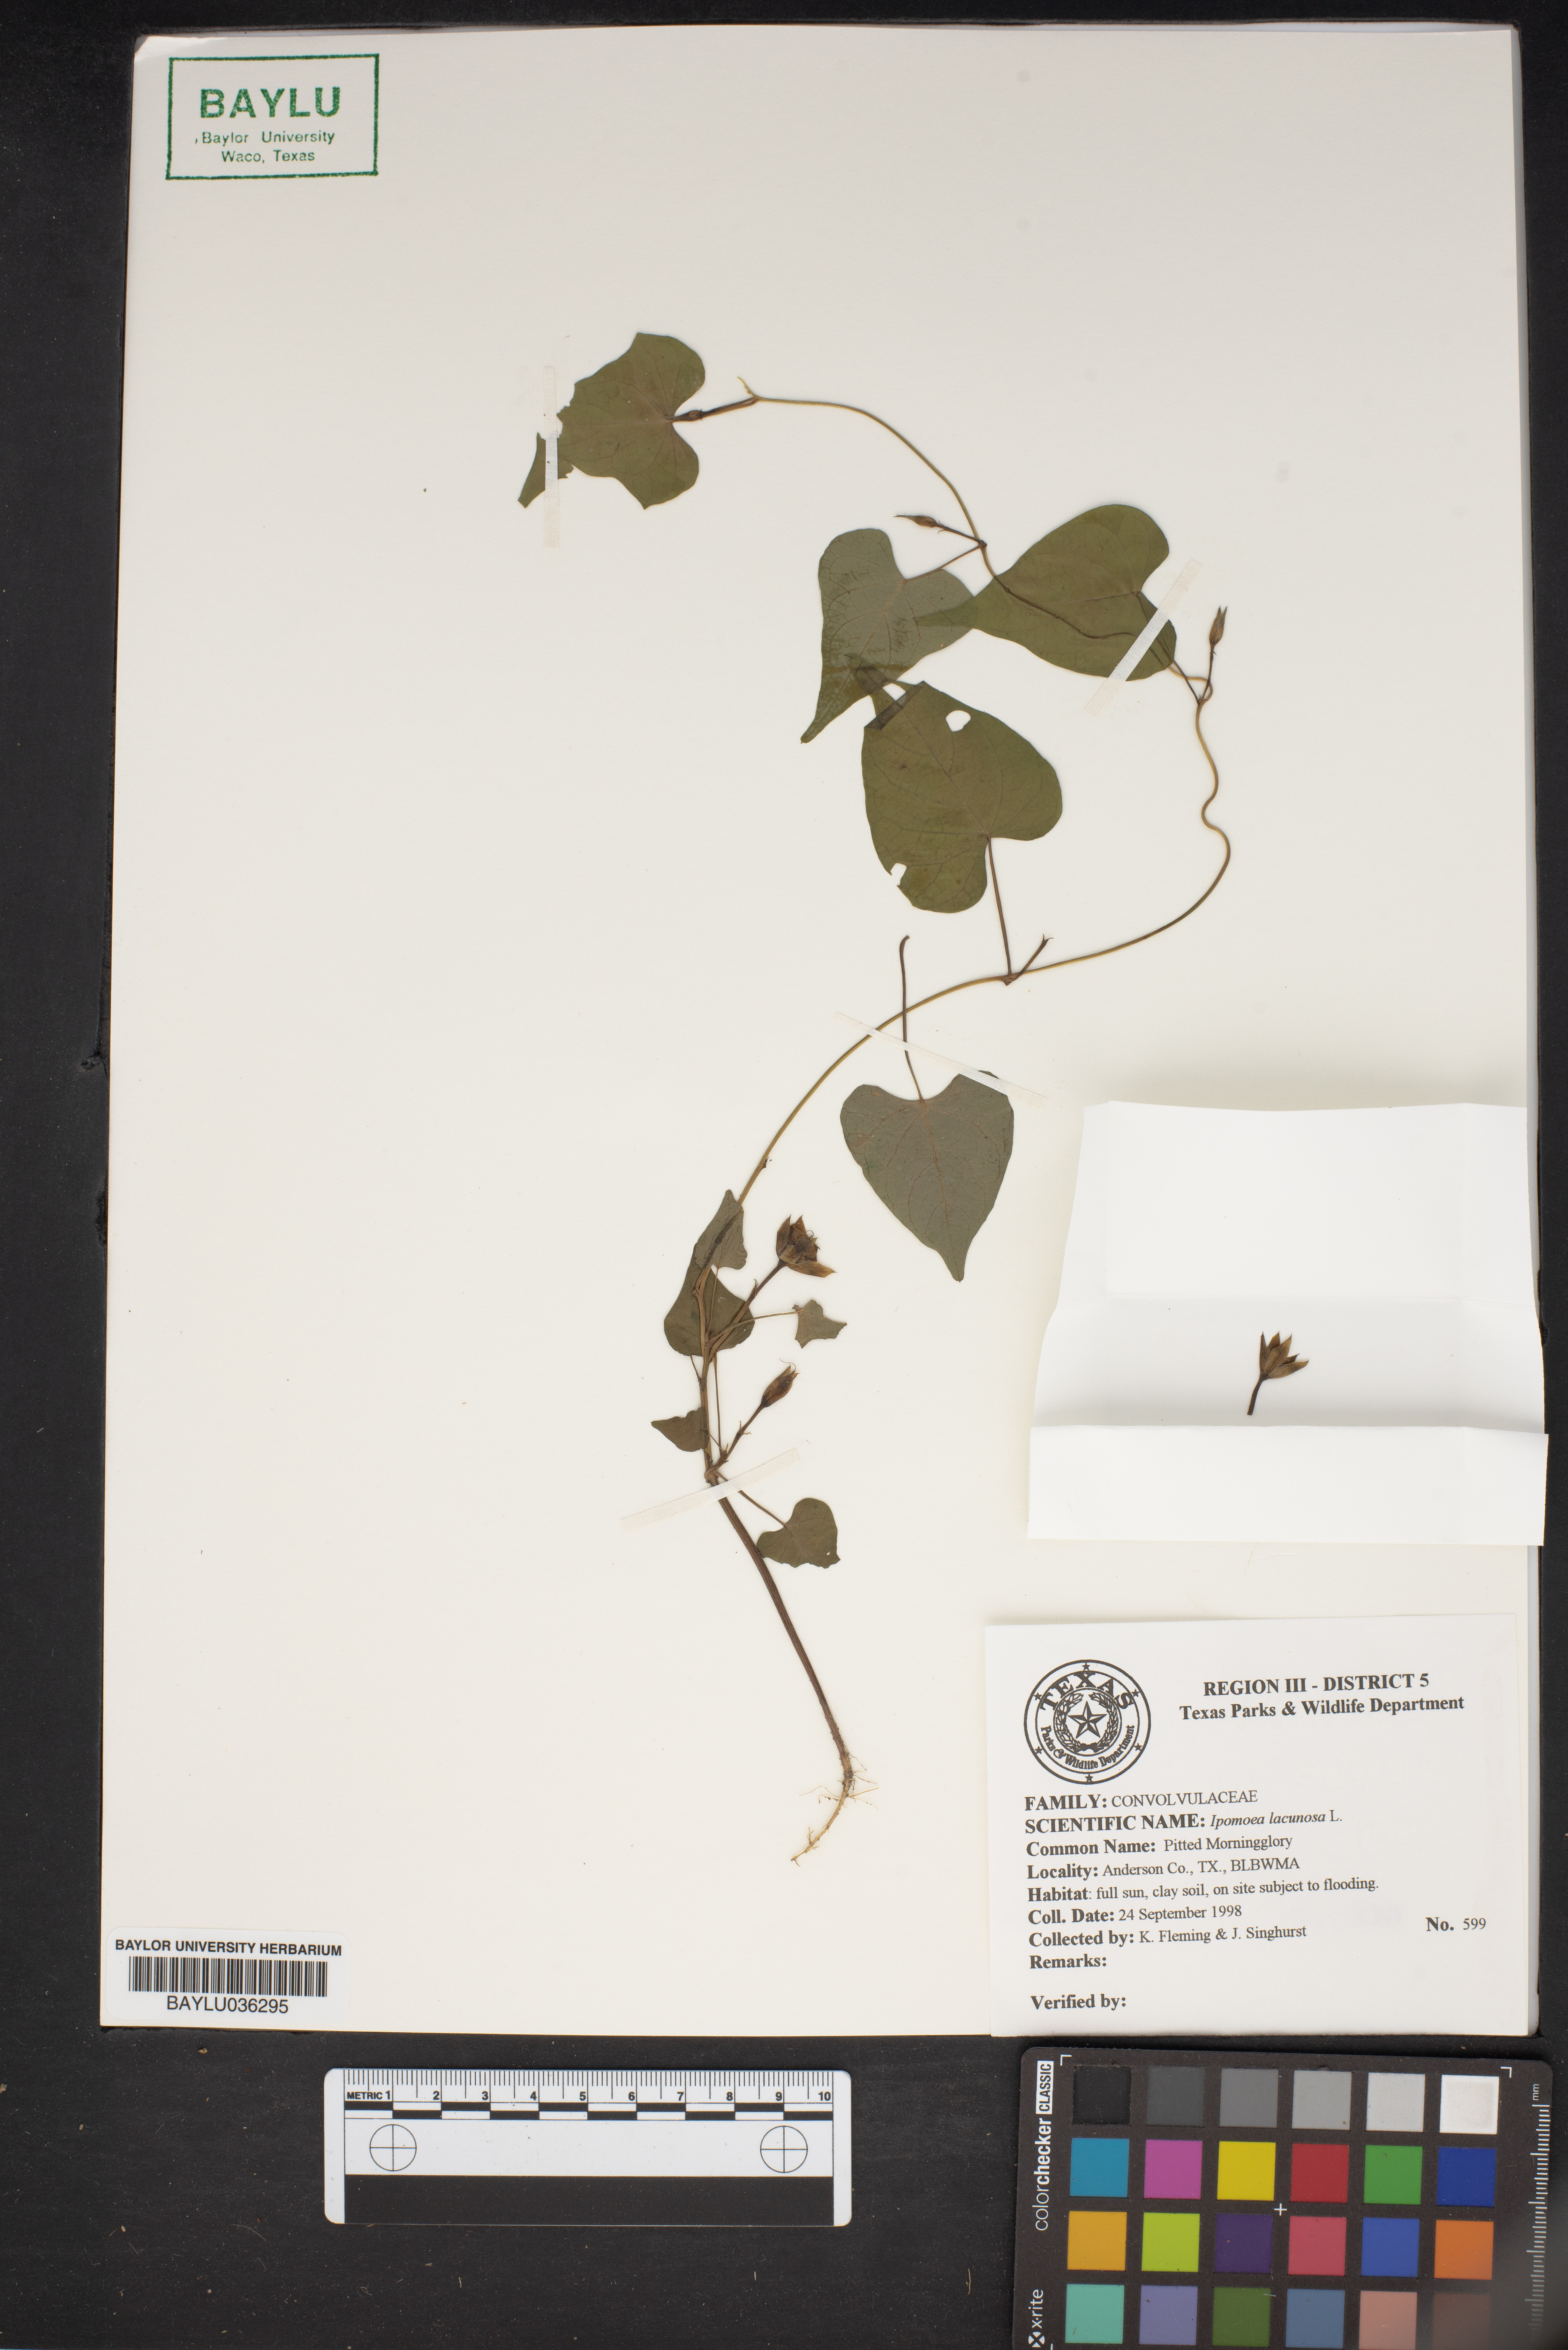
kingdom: Plantae
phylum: Tracheophyta
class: Magnoliopsida
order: Solanales
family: Convolvulaceae
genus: Ipomoea
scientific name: Ipomoea lacunosa
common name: White morning-glory
